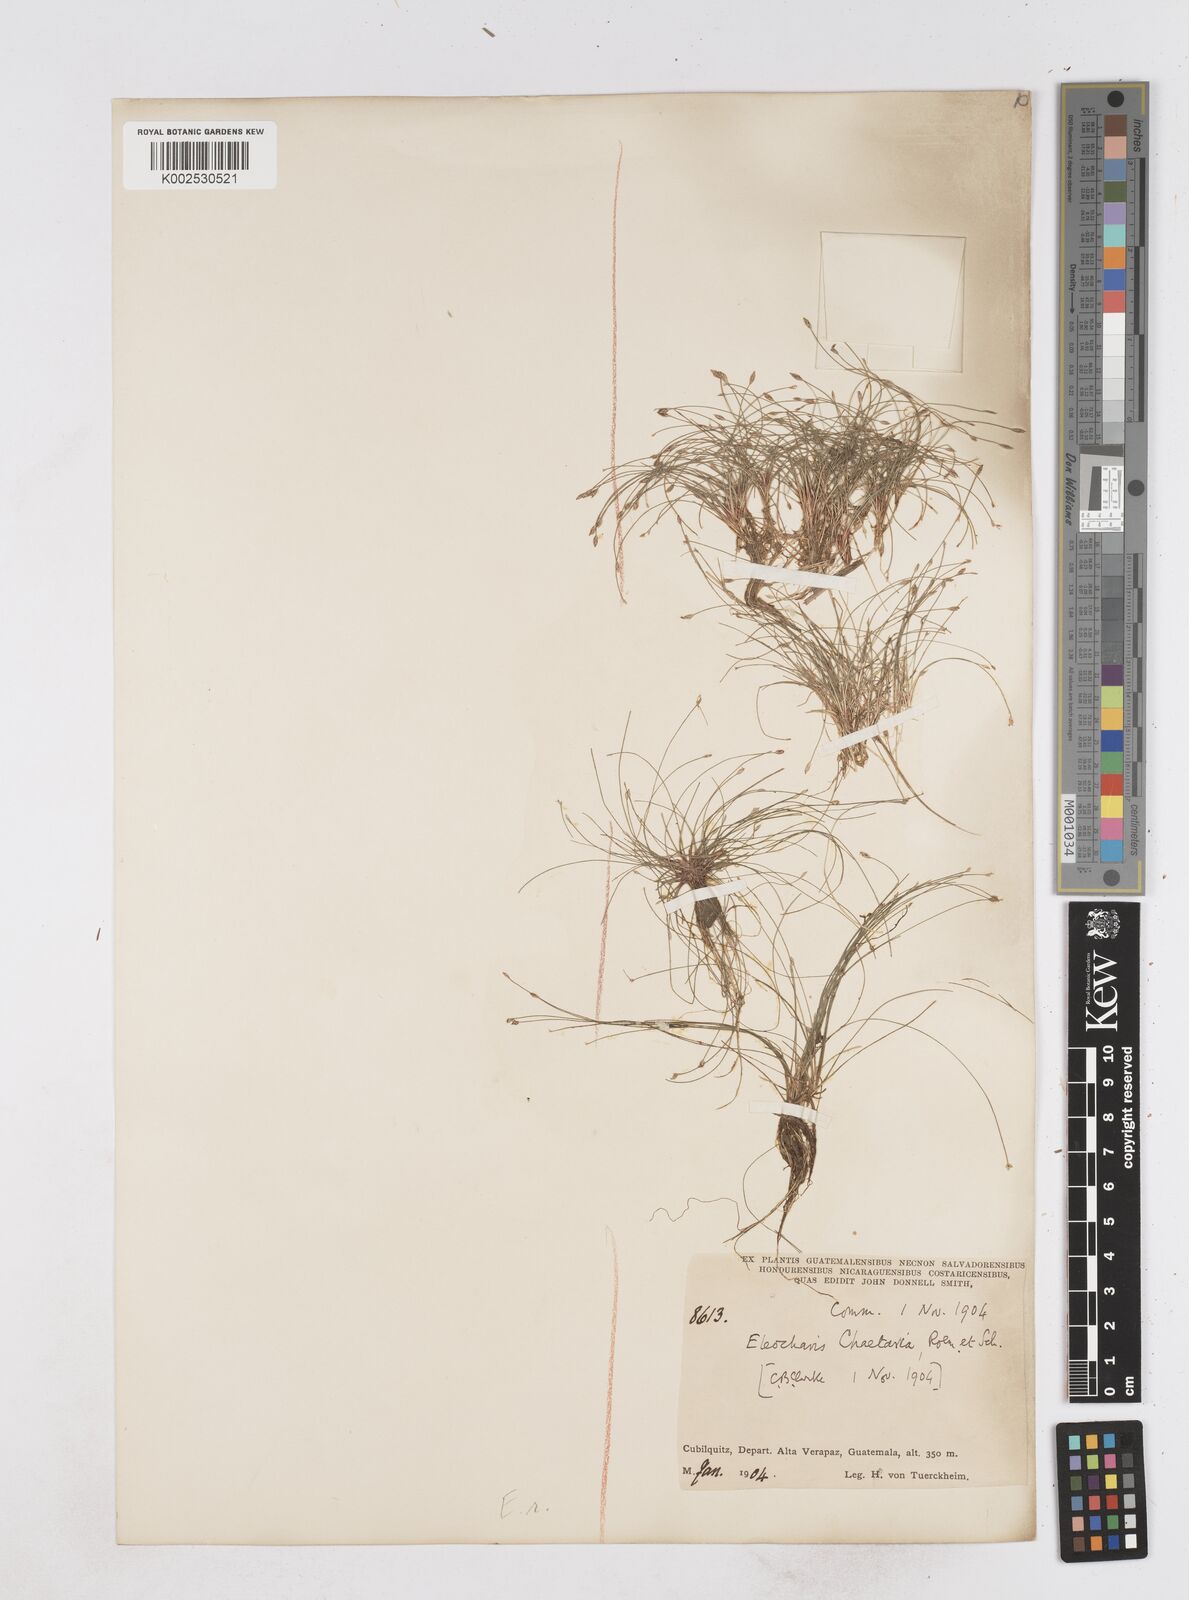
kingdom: Plantae
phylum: Tracheophyta
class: Liliopsida
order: Poales
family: Cyperaceae
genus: Eleocharis
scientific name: Eleocharis retroflexa
